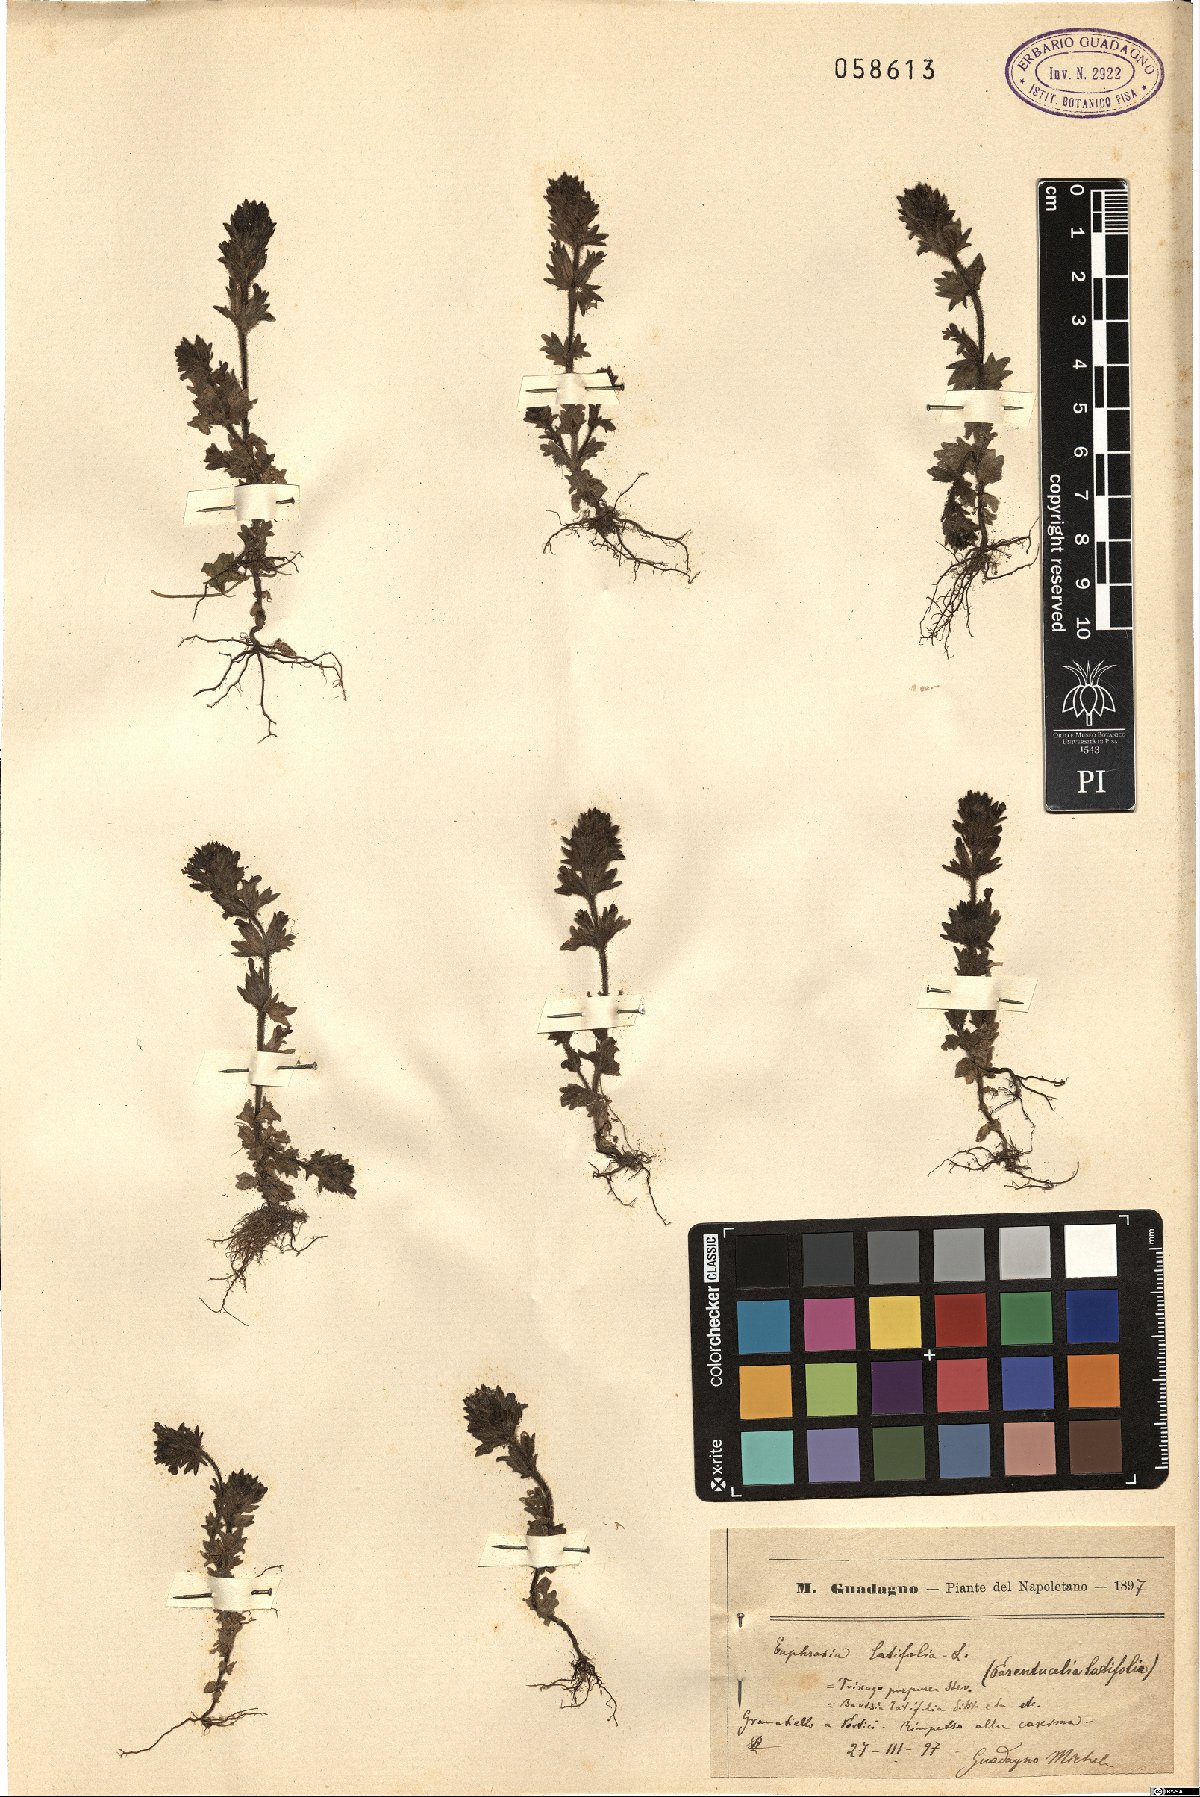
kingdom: Plantae
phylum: Tracheophyta
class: Magnoliopsida
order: Lamiales
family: Orobanchaceae
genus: Parentucellia
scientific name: Parentucellia latifolia
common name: Broadleaf glandweed
